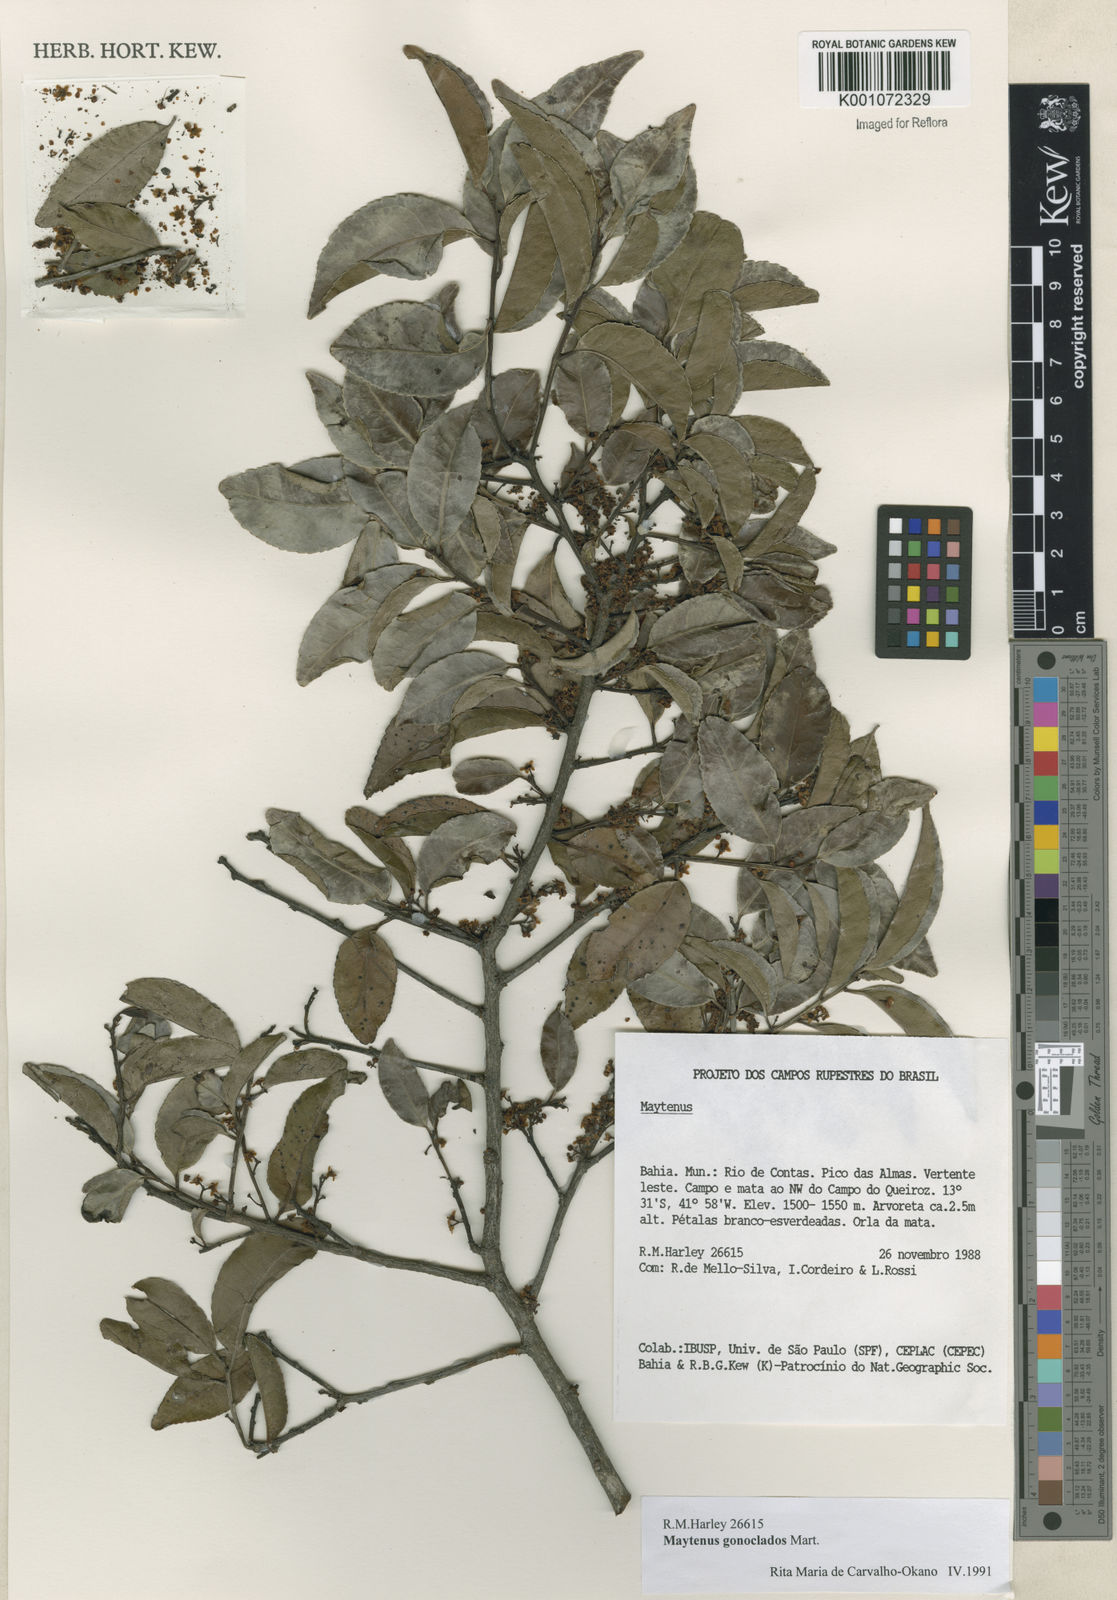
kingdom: Plantae
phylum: Tracheophyta
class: Magnoliopsida
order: Celastrales
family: Celastraceae
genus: Maytenus
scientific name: Maytenus
